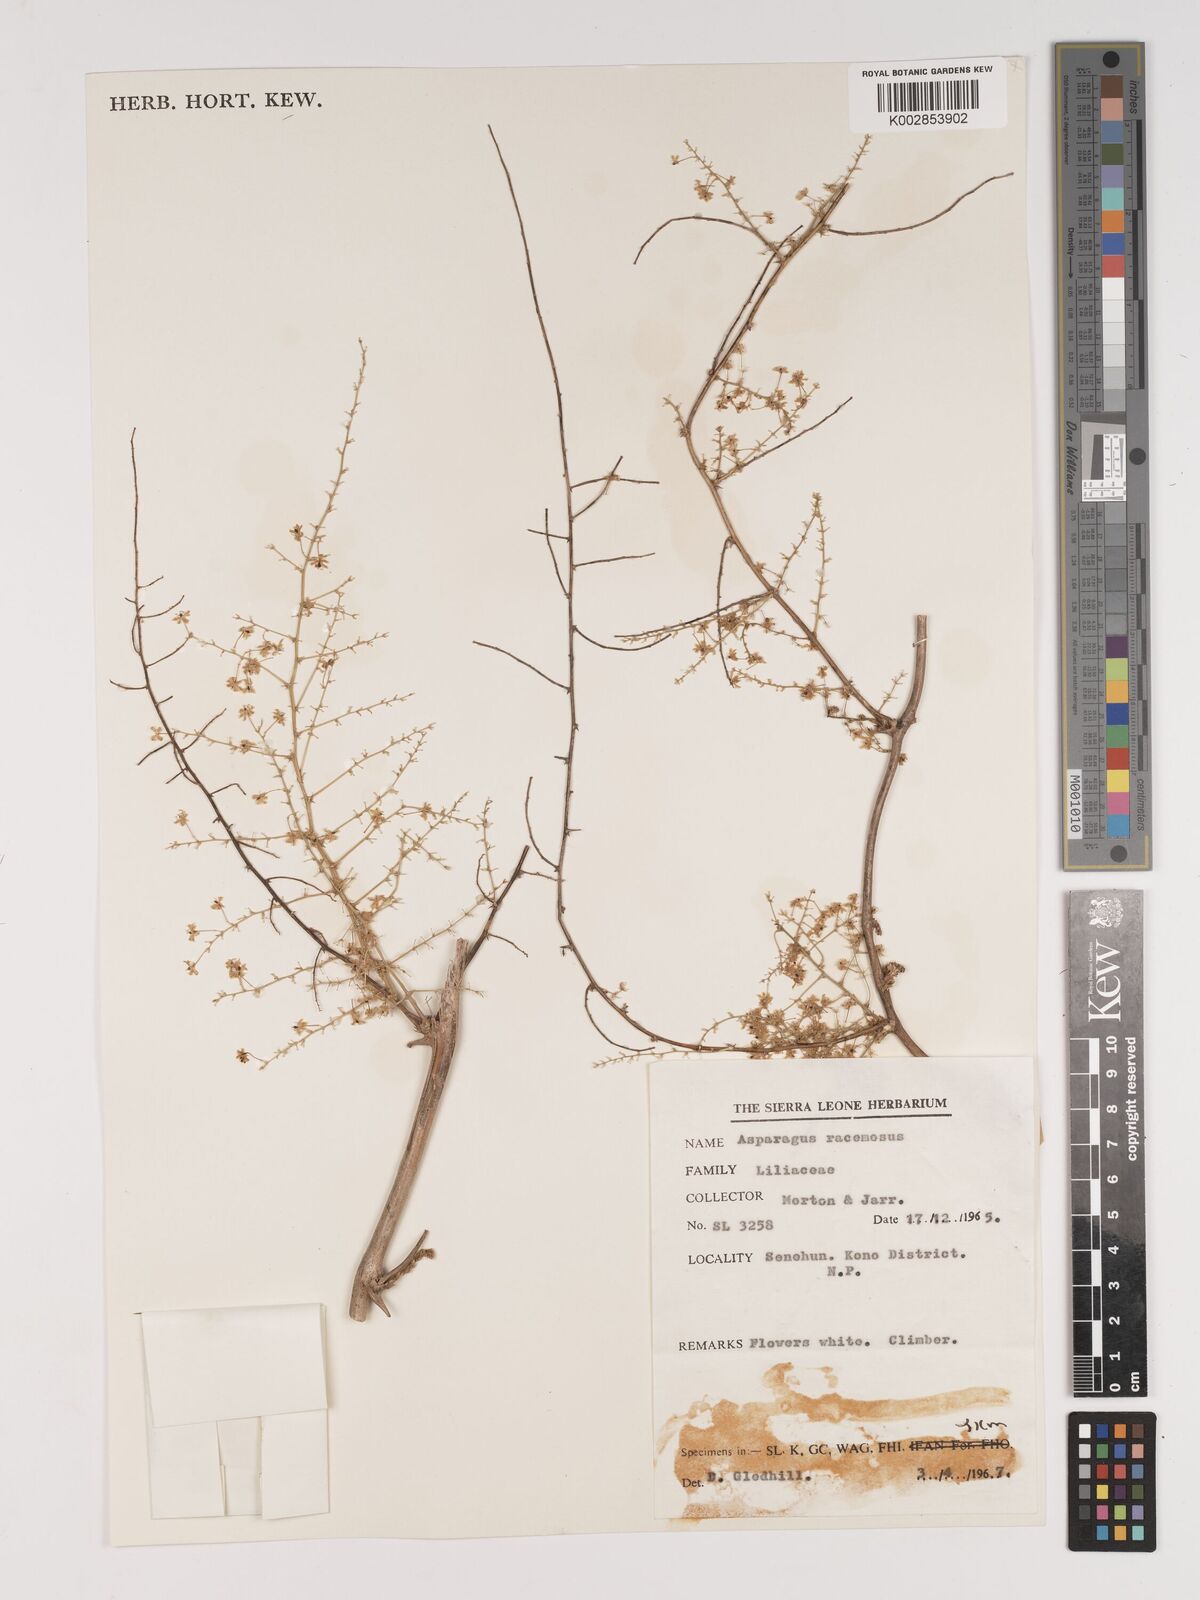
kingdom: Plantae
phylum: Tracheophyta
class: Liliopsida
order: Asparagales
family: Asparagaceae
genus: Asparagus
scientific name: Asparagus racemosus
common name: Asparagus-fern
